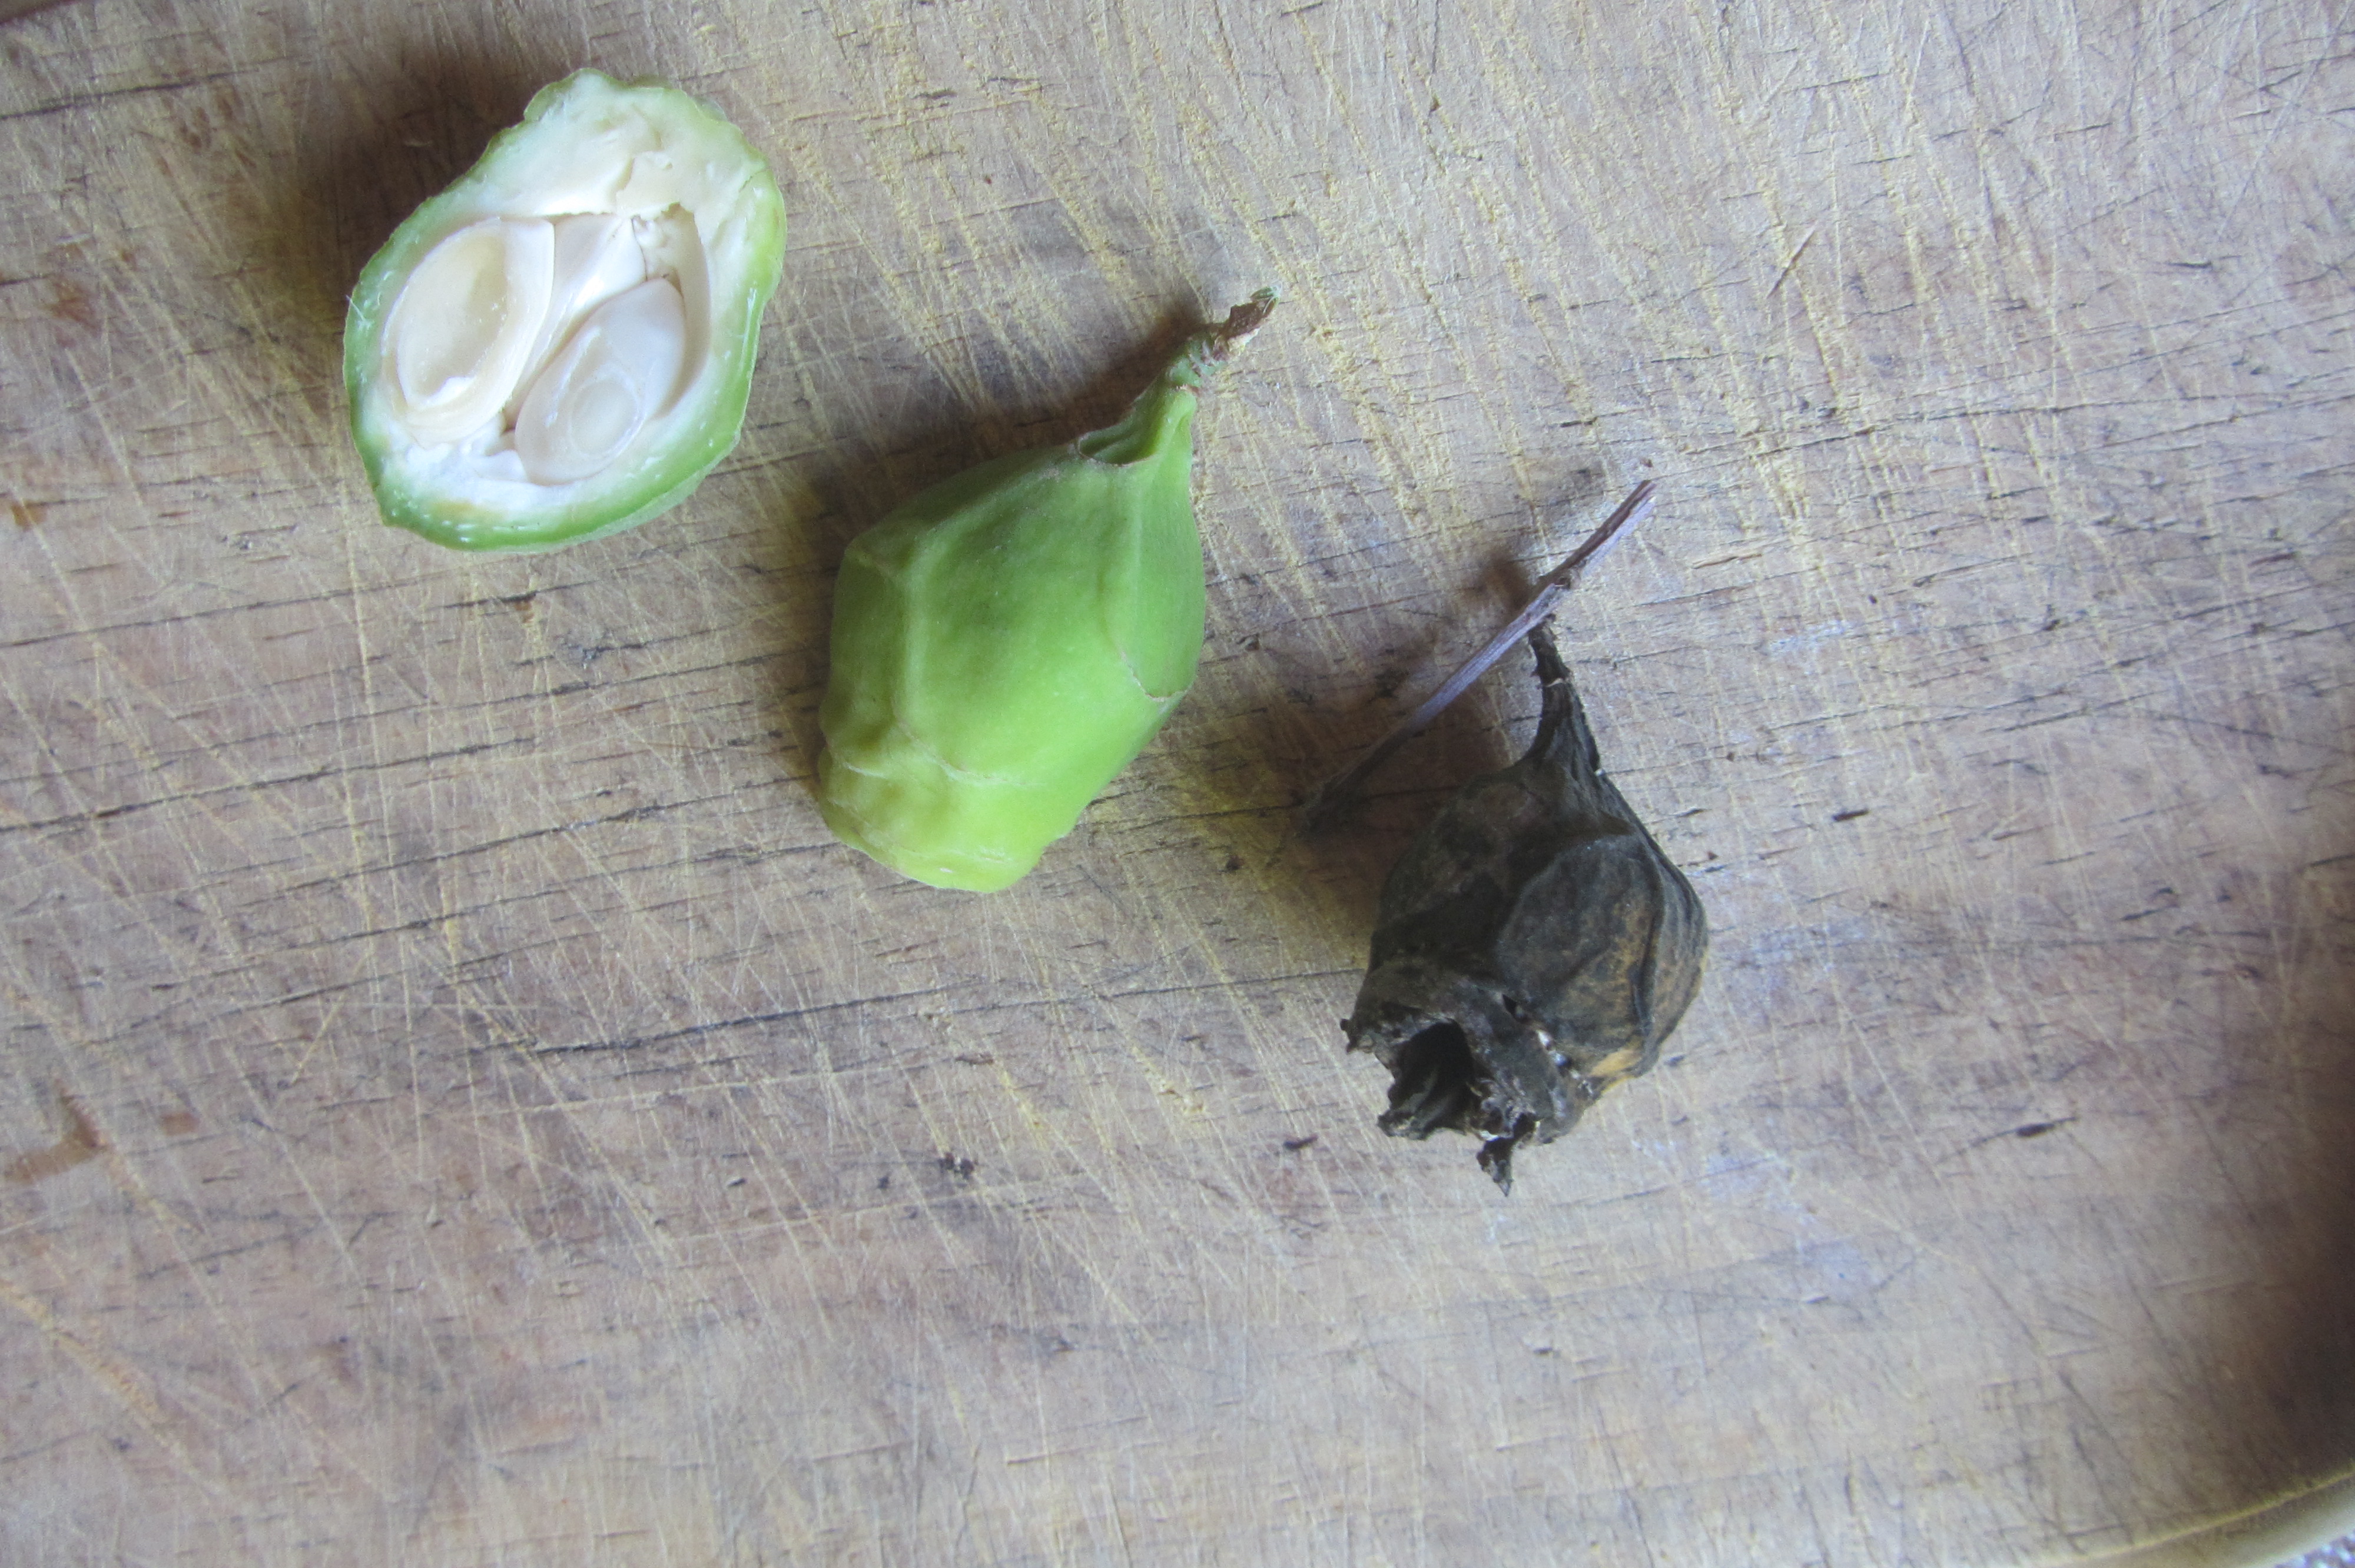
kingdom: Plantae
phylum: Tracheophyta
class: Magnoliopsida
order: Laurales
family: Calycanthaceae
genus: Calycanthus
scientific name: Calycanthus chinensis
